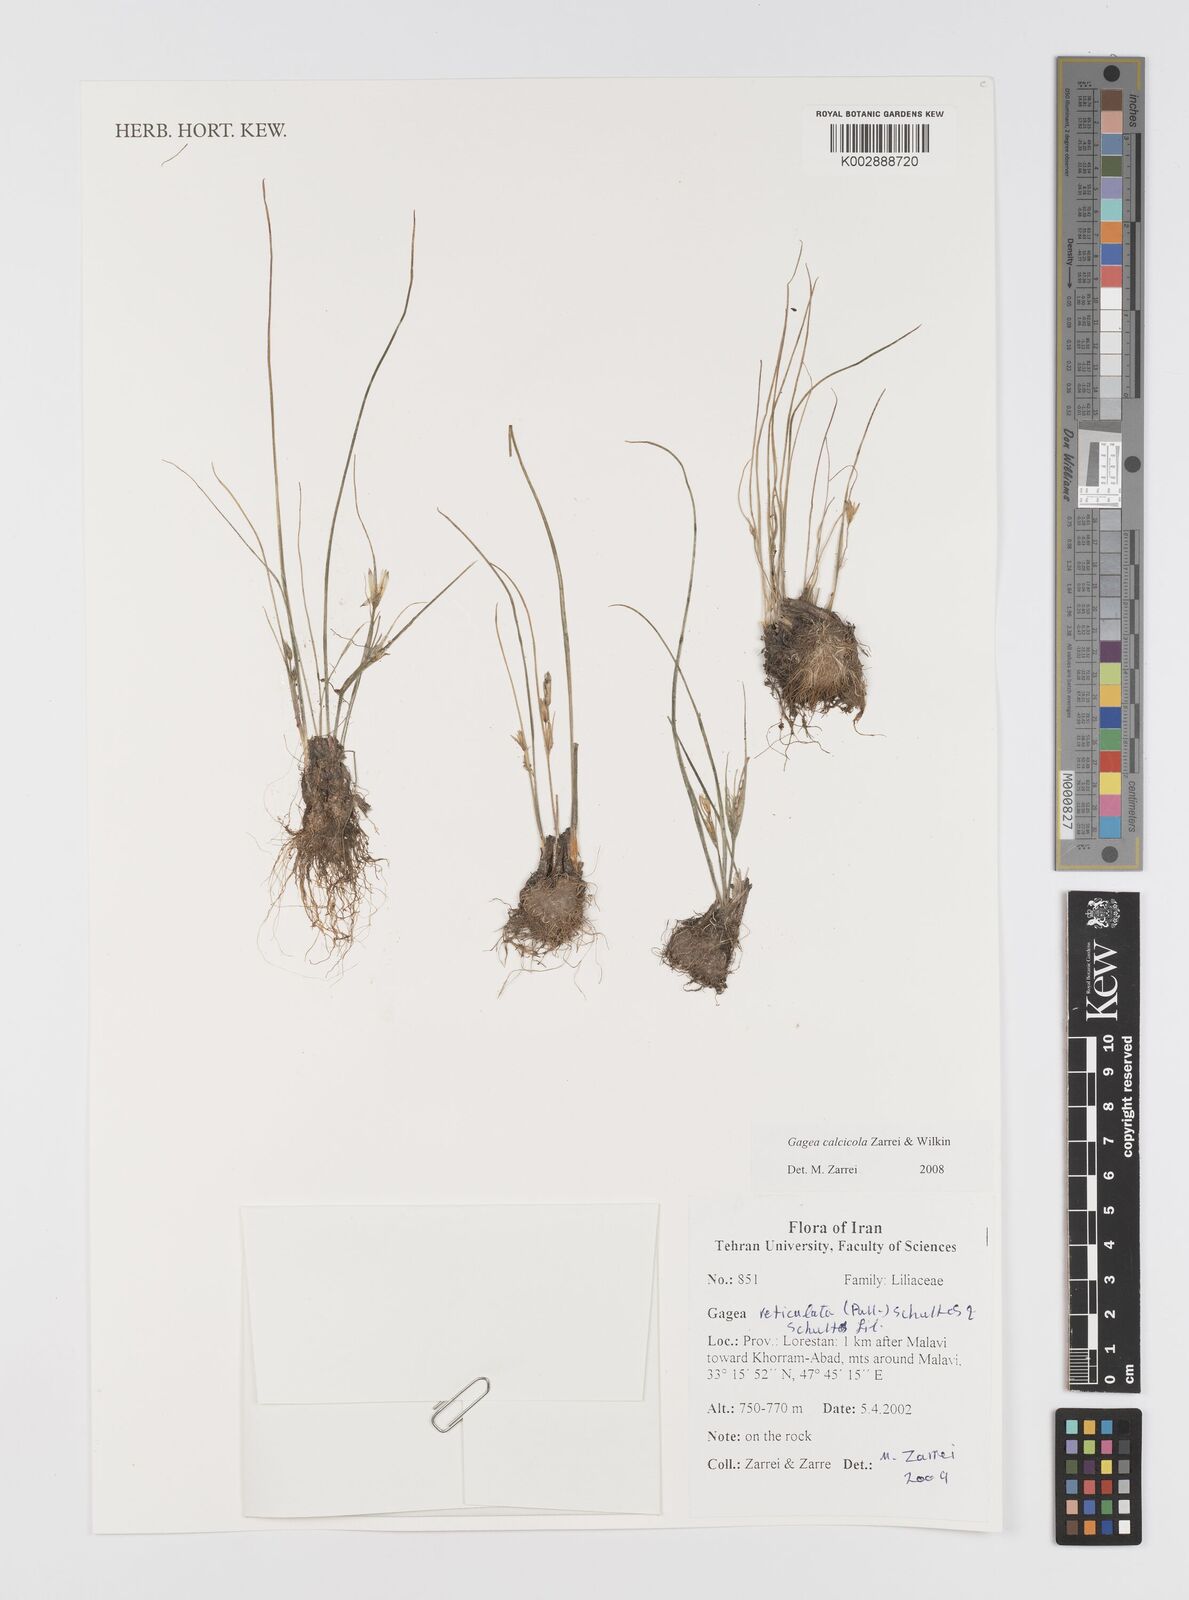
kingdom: Plantae
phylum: Tracheophyta
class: Liliopsida
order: Liliales
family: Liliaceae
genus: Gagea
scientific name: Gagea calcicola
